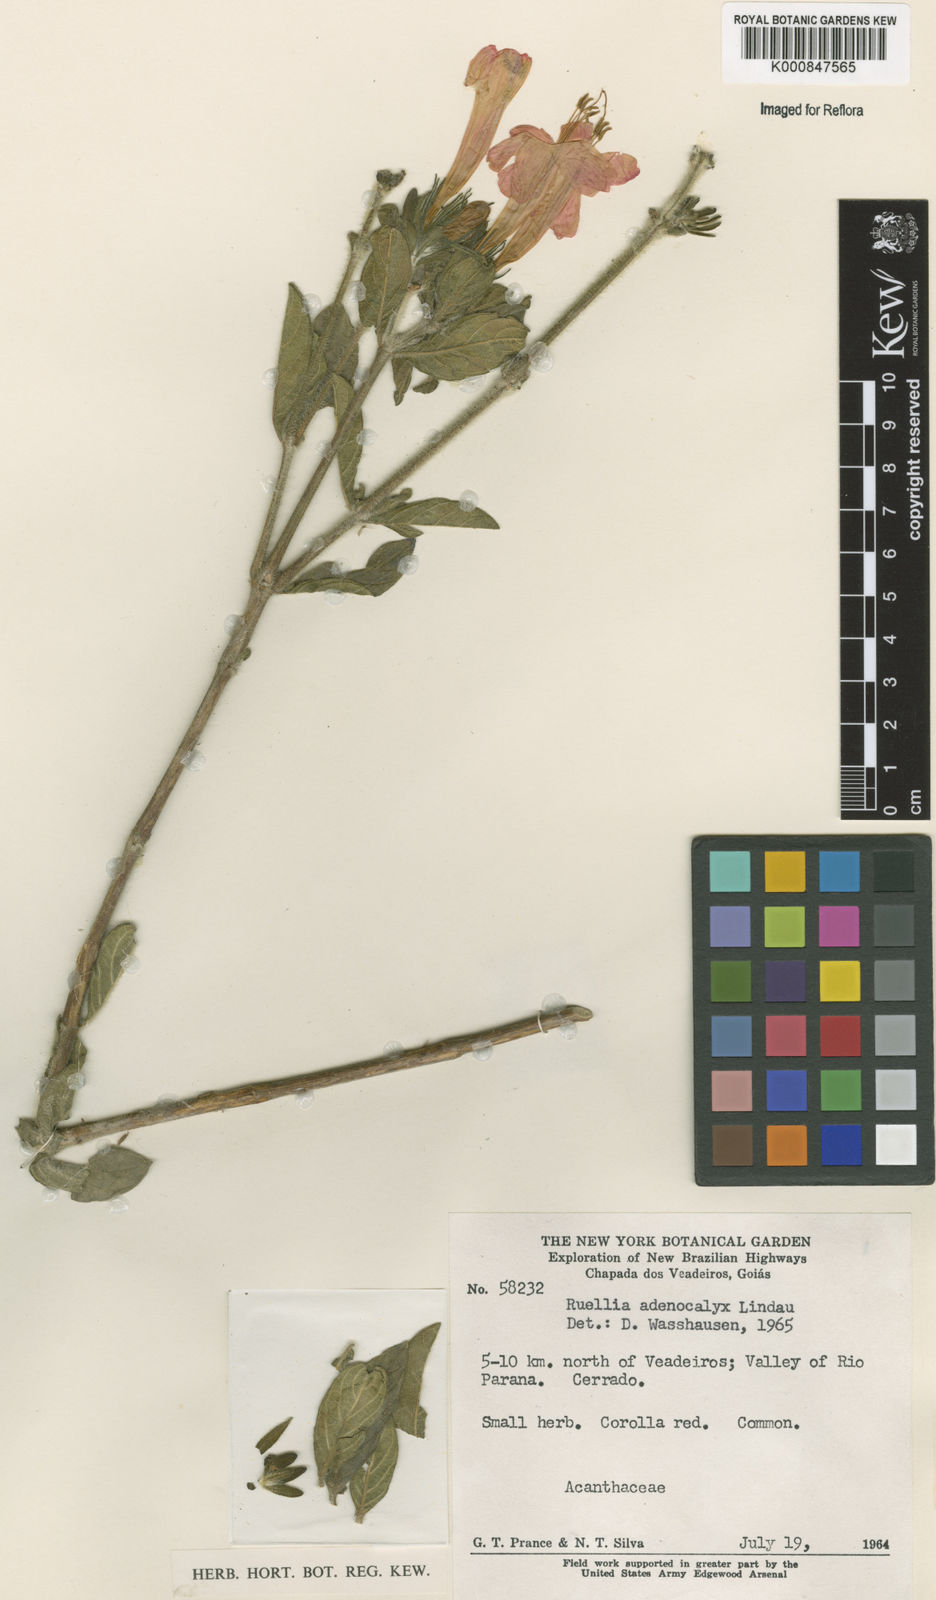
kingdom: Plantae
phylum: Tracheophyta
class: Magnoliopsida
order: Lamiales
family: Acanthaceae
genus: Ruellia
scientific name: Ruellia adenocalyx
